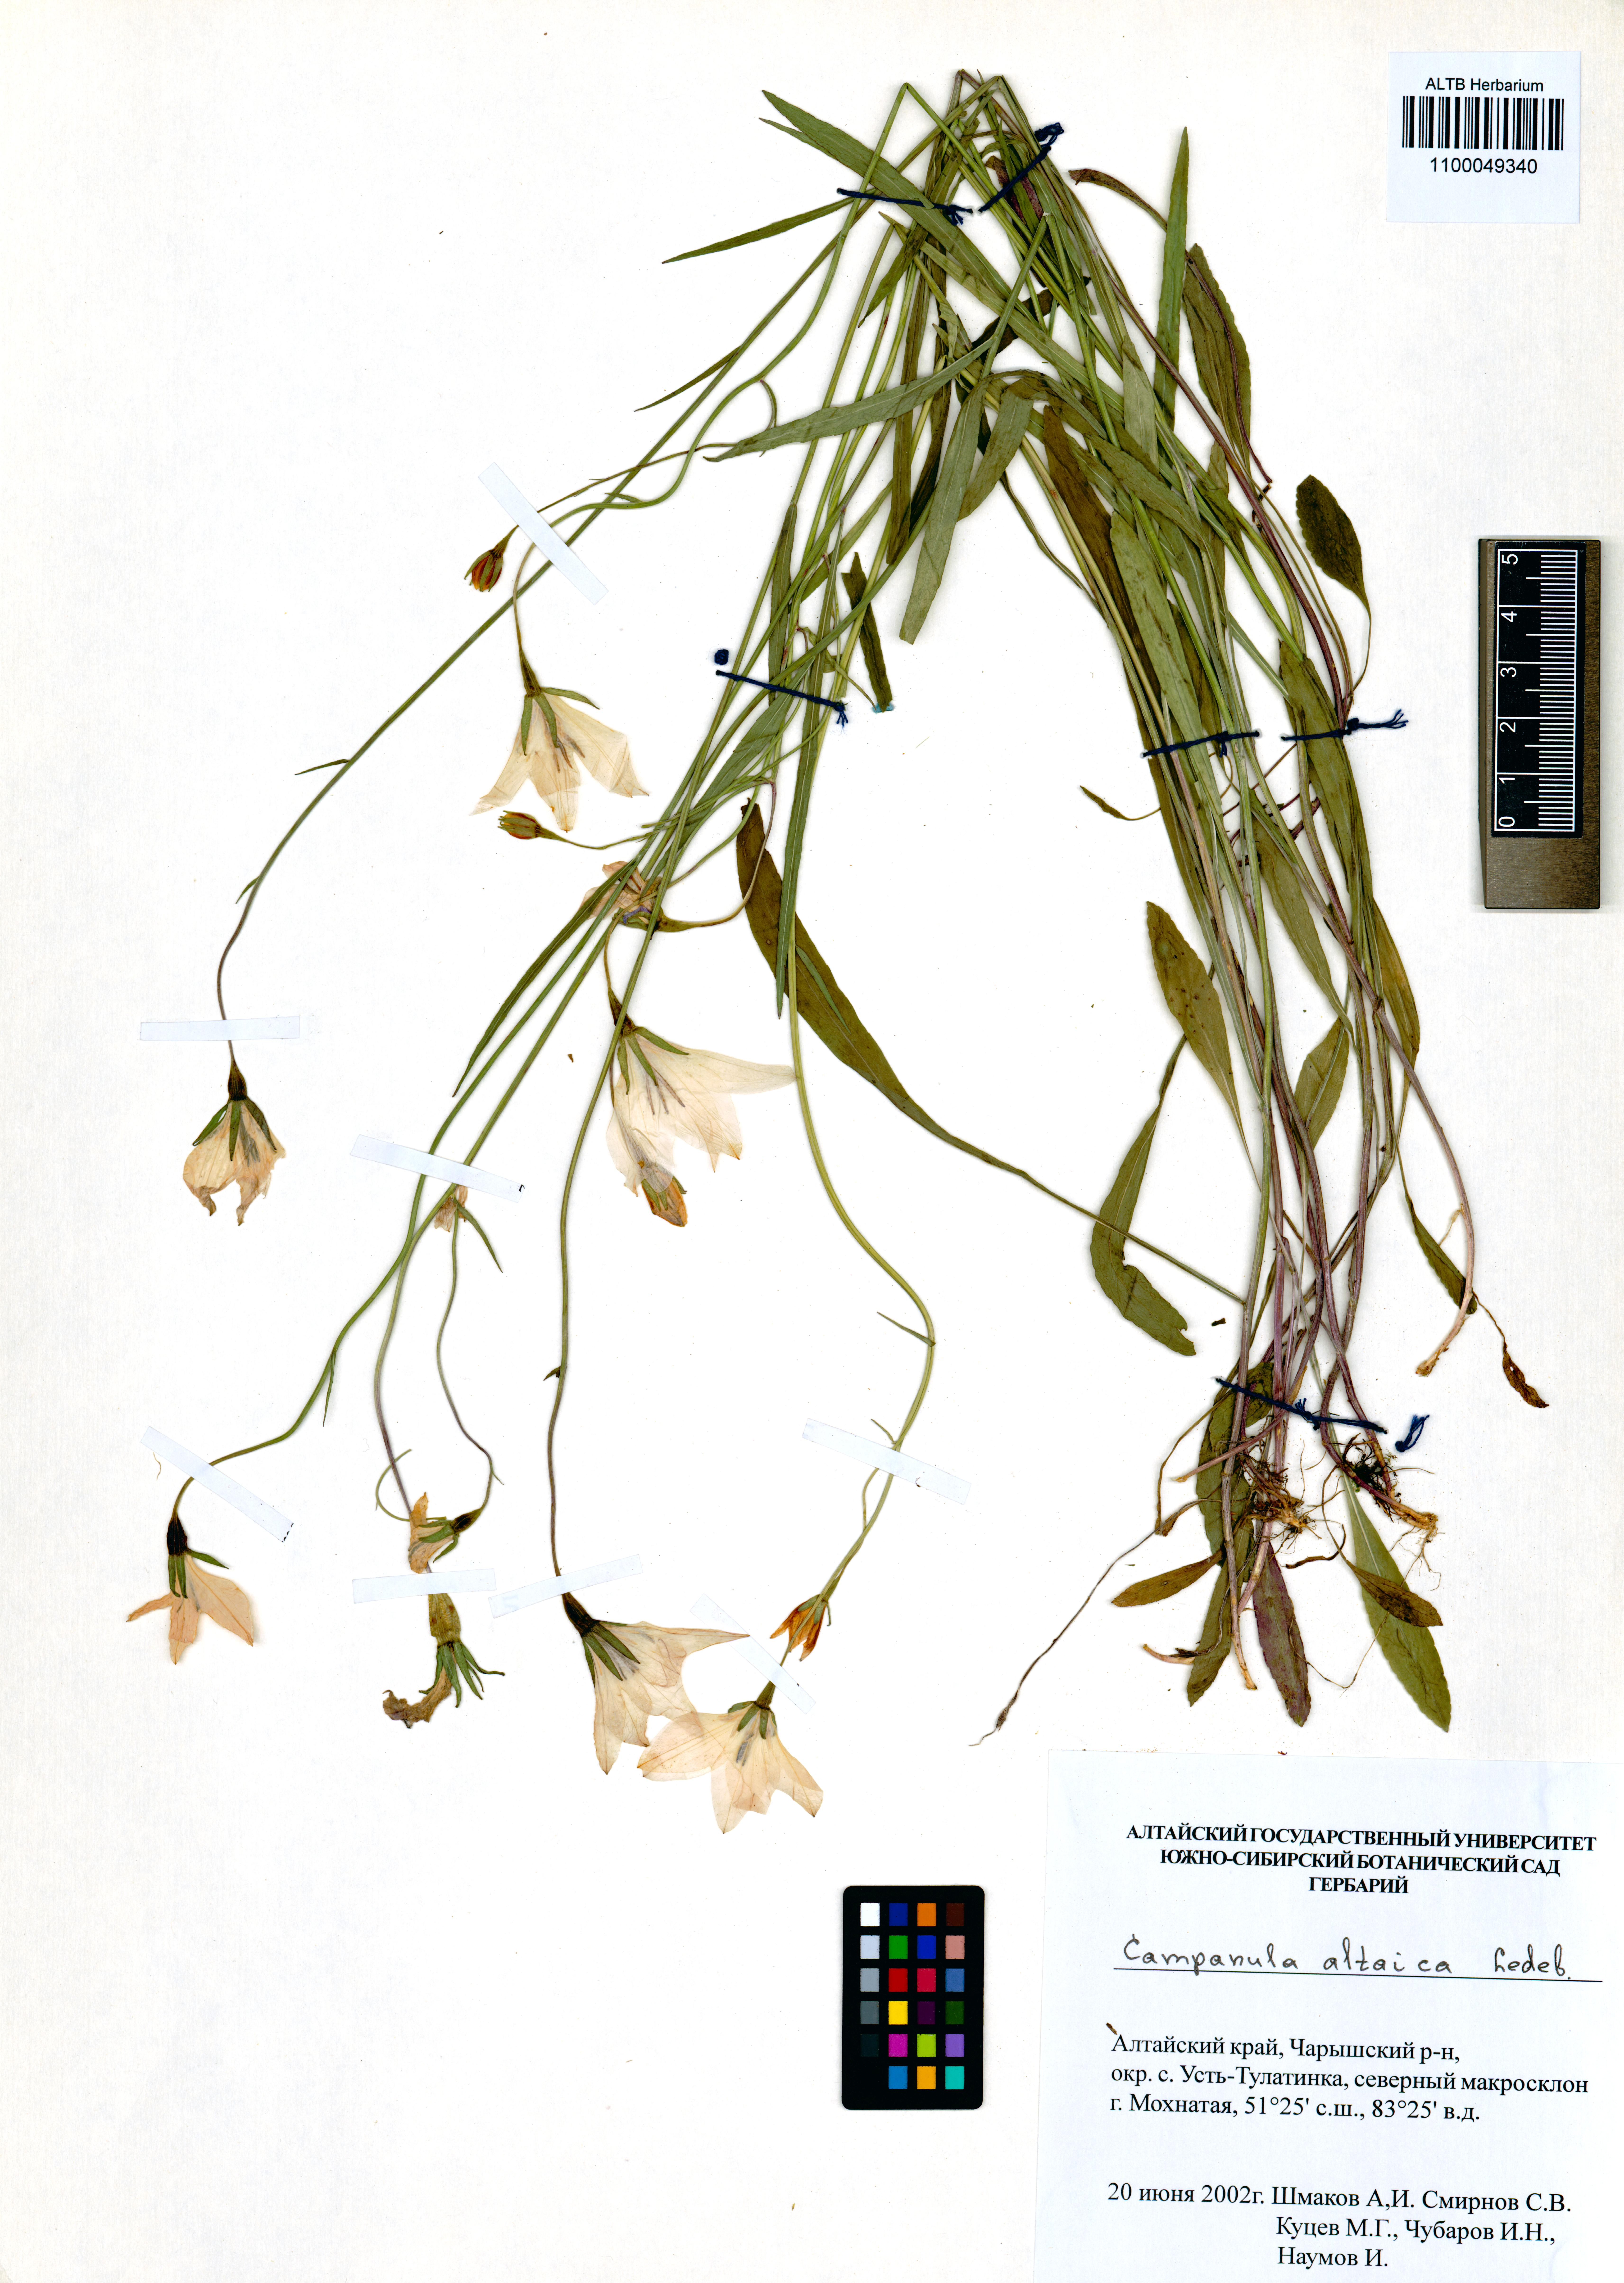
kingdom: Plantae
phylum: Tracheophyta
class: Magnoliopsida
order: Asterales
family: Campanulaceae
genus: Campanula
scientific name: Campanula stevenii
